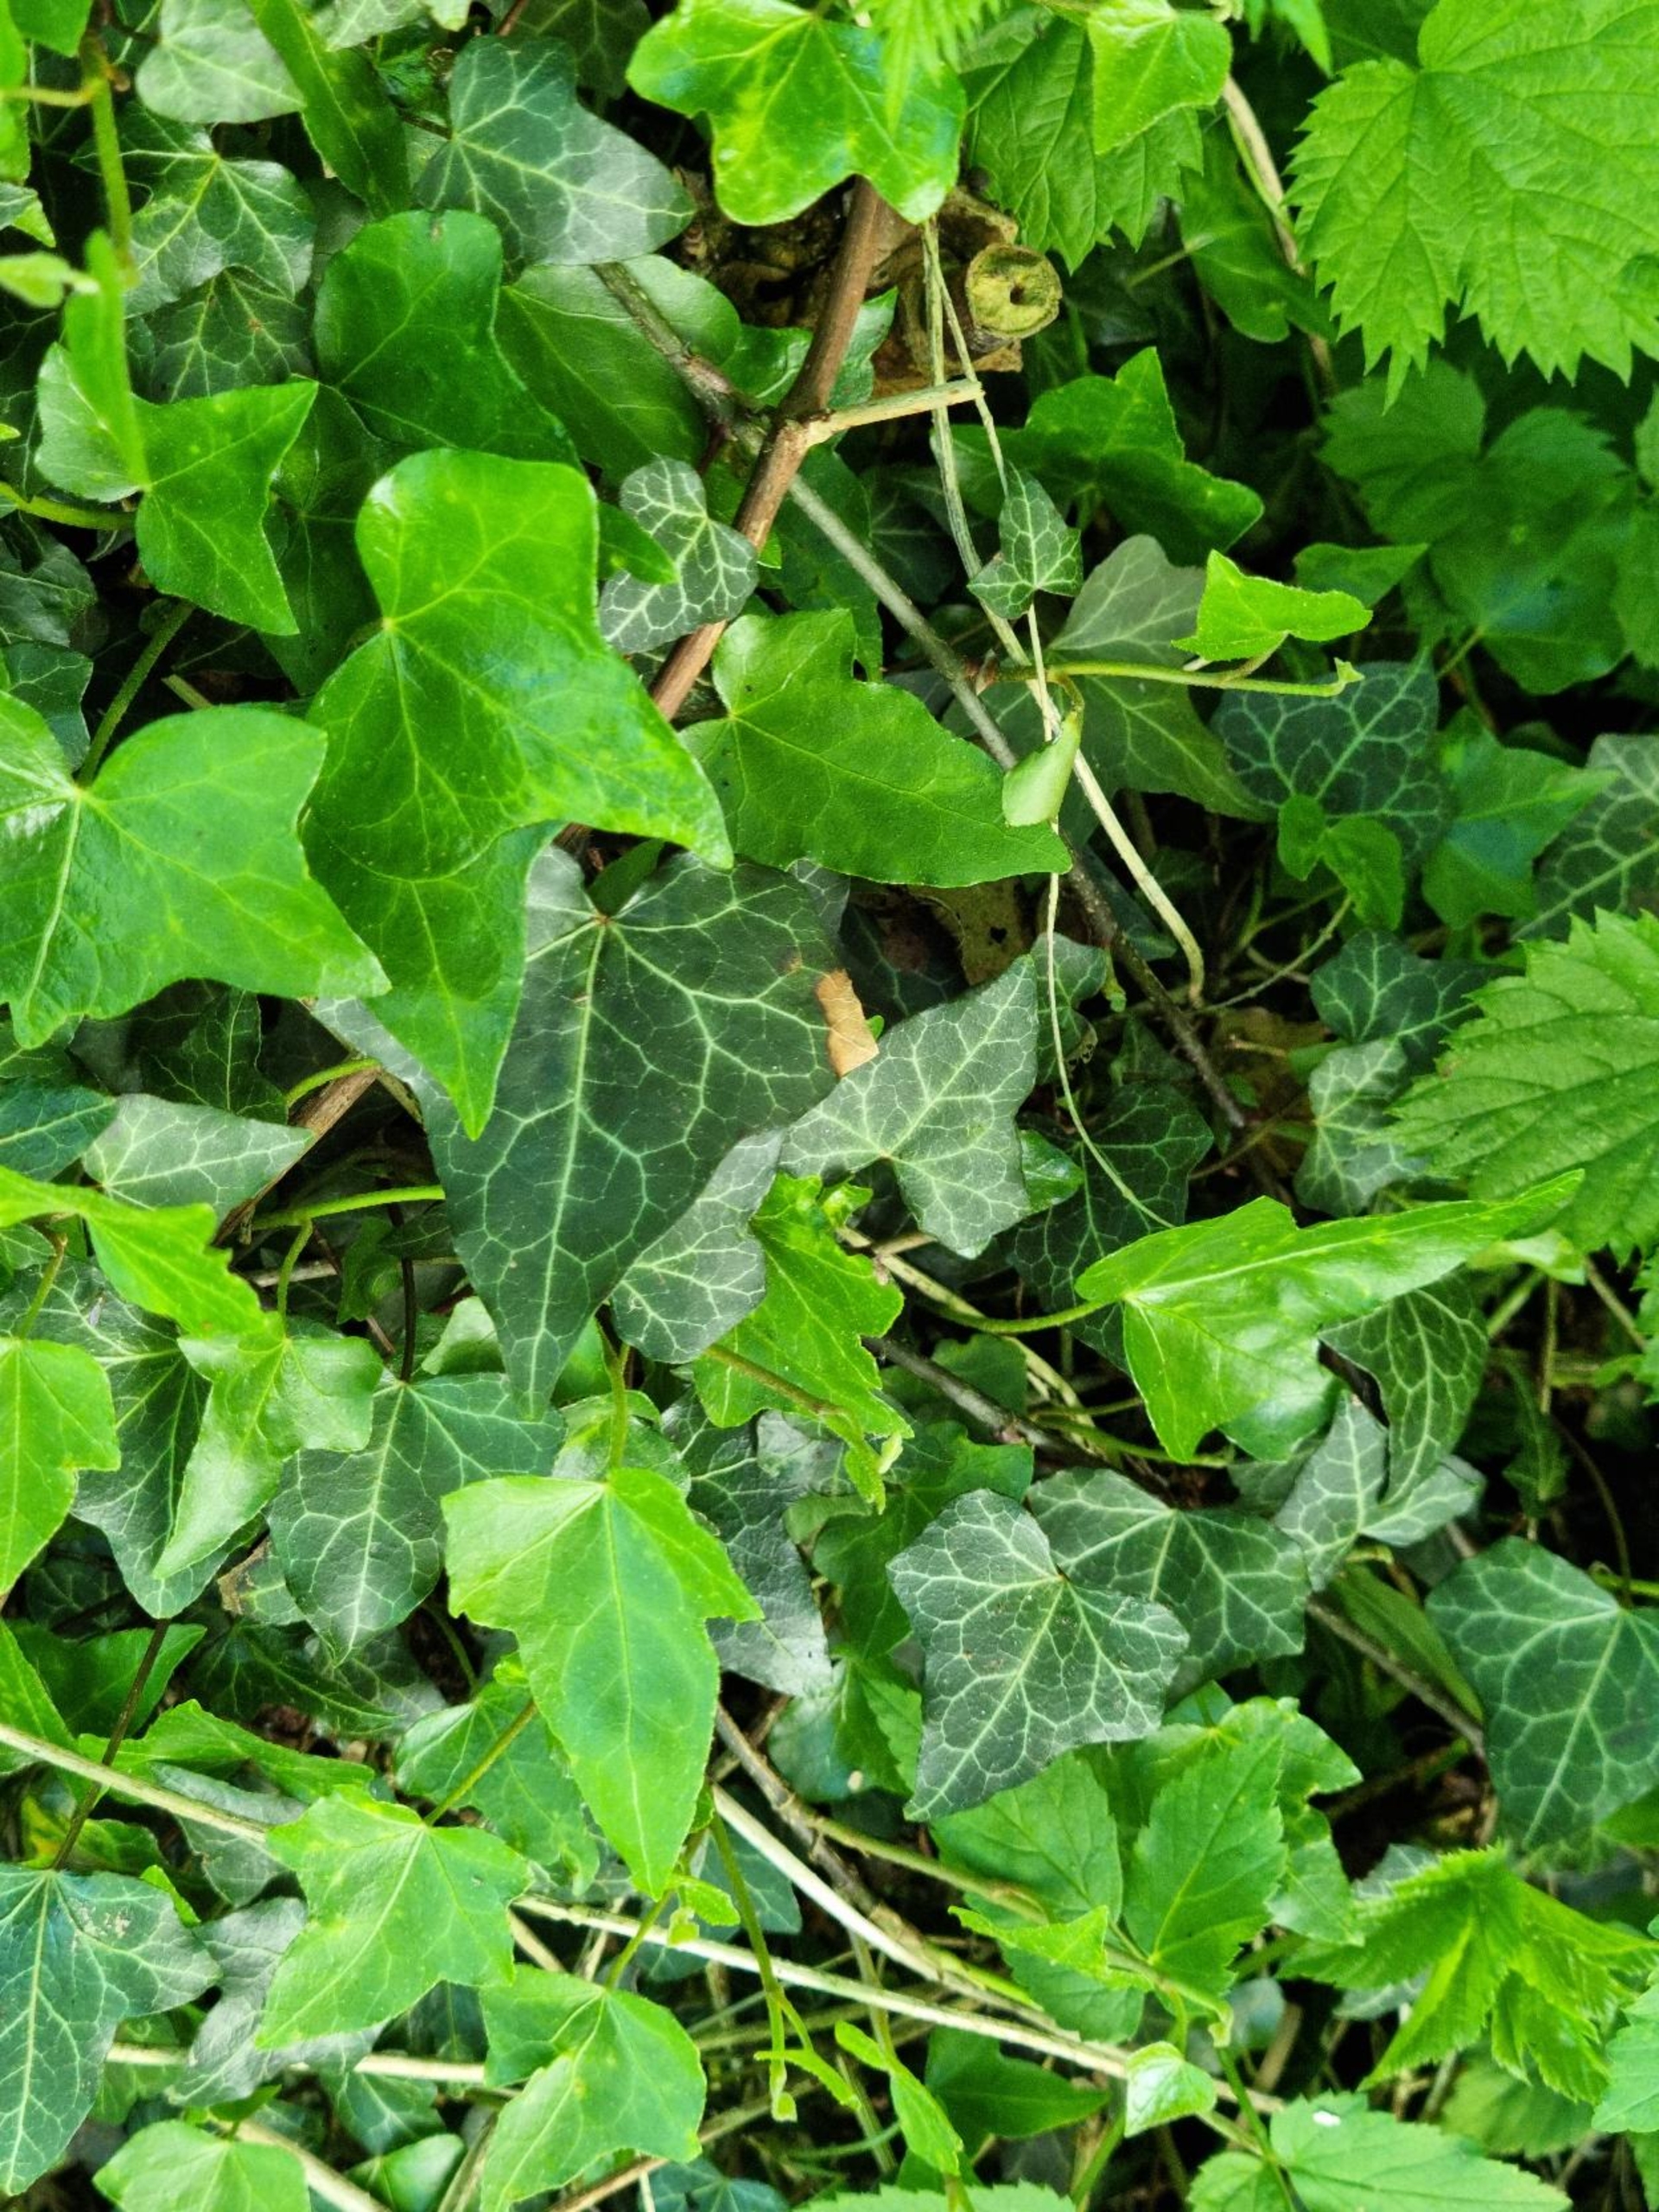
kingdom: Plantae
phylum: Tracheophyta
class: Magnoliopsida
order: Apiales
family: Araliaceae
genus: Hedera
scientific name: Hedera helix
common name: Vedbend
